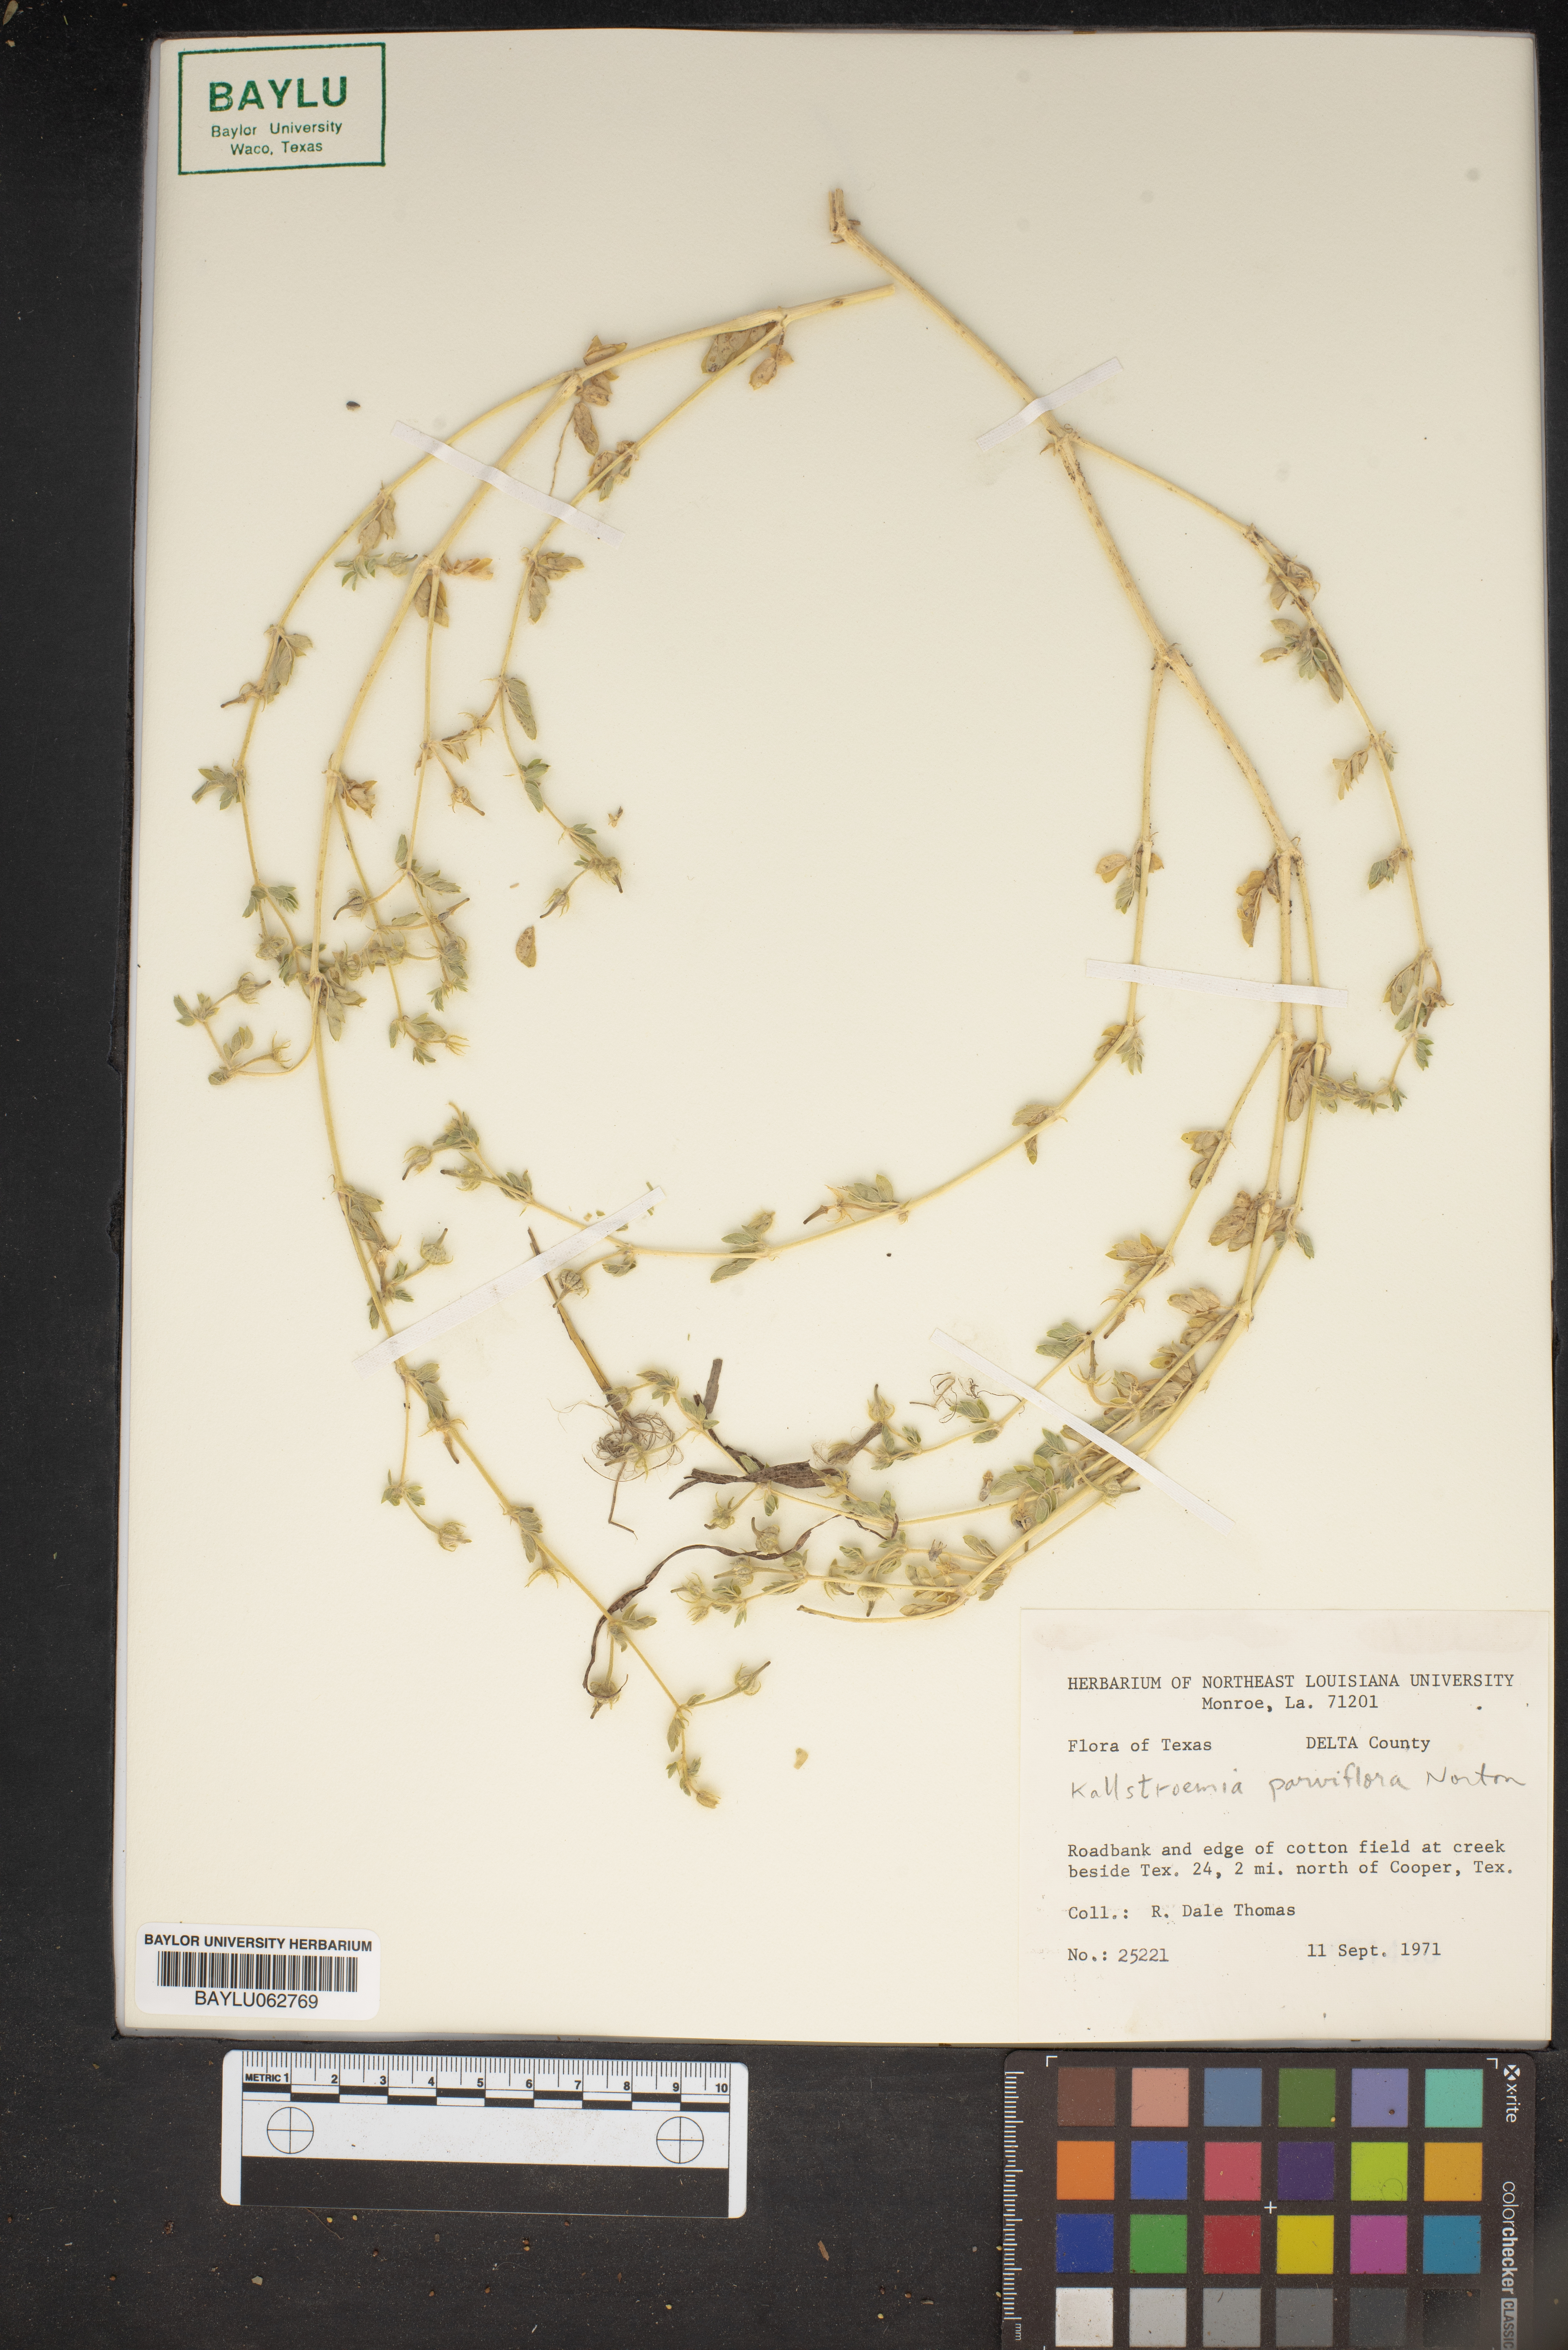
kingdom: Plantae
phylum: Tracheophyta
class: Magnoliopsida
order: Zygophyllales
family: Zygophyllaceae
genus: Kallstroemia
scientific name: Kallstroemia parviflora
